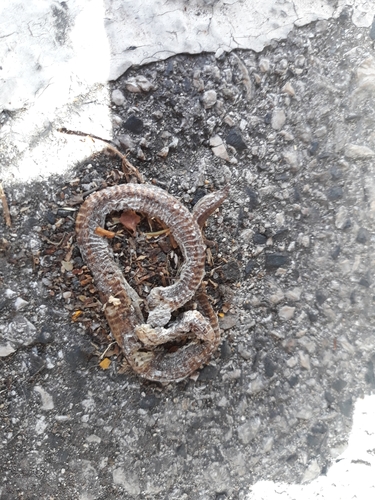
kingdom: Animalia
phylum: Chordata
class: Squamata
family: Blanidae
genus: Blanus
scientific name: Blanus cinereus
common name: Mediterranean worm lizard
